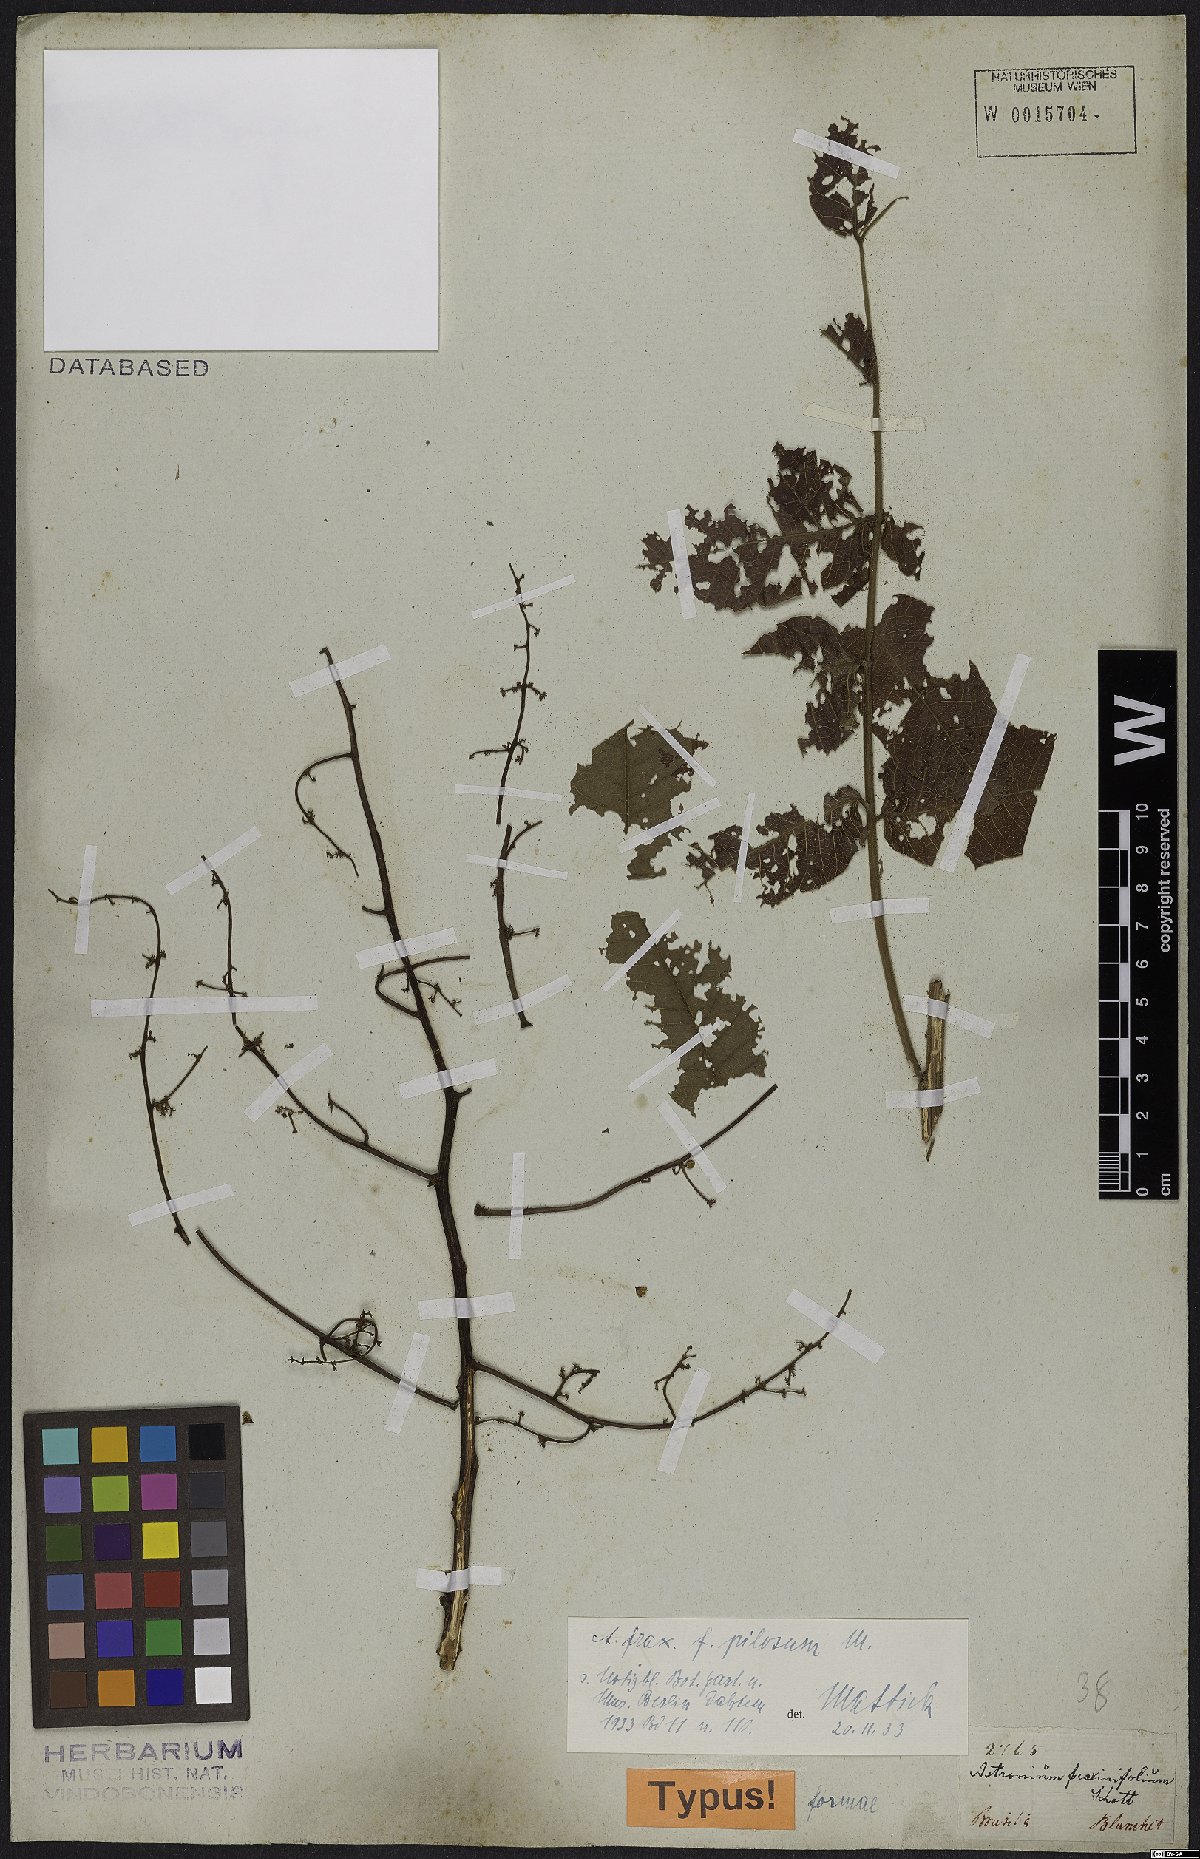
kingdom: Plantae
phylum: Tracheophyta
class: Magnoliopsida
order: Sapindales
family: Anacardiaceae
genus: Astronium
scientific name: Astronium fraxinifolium
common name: Tigerwood
